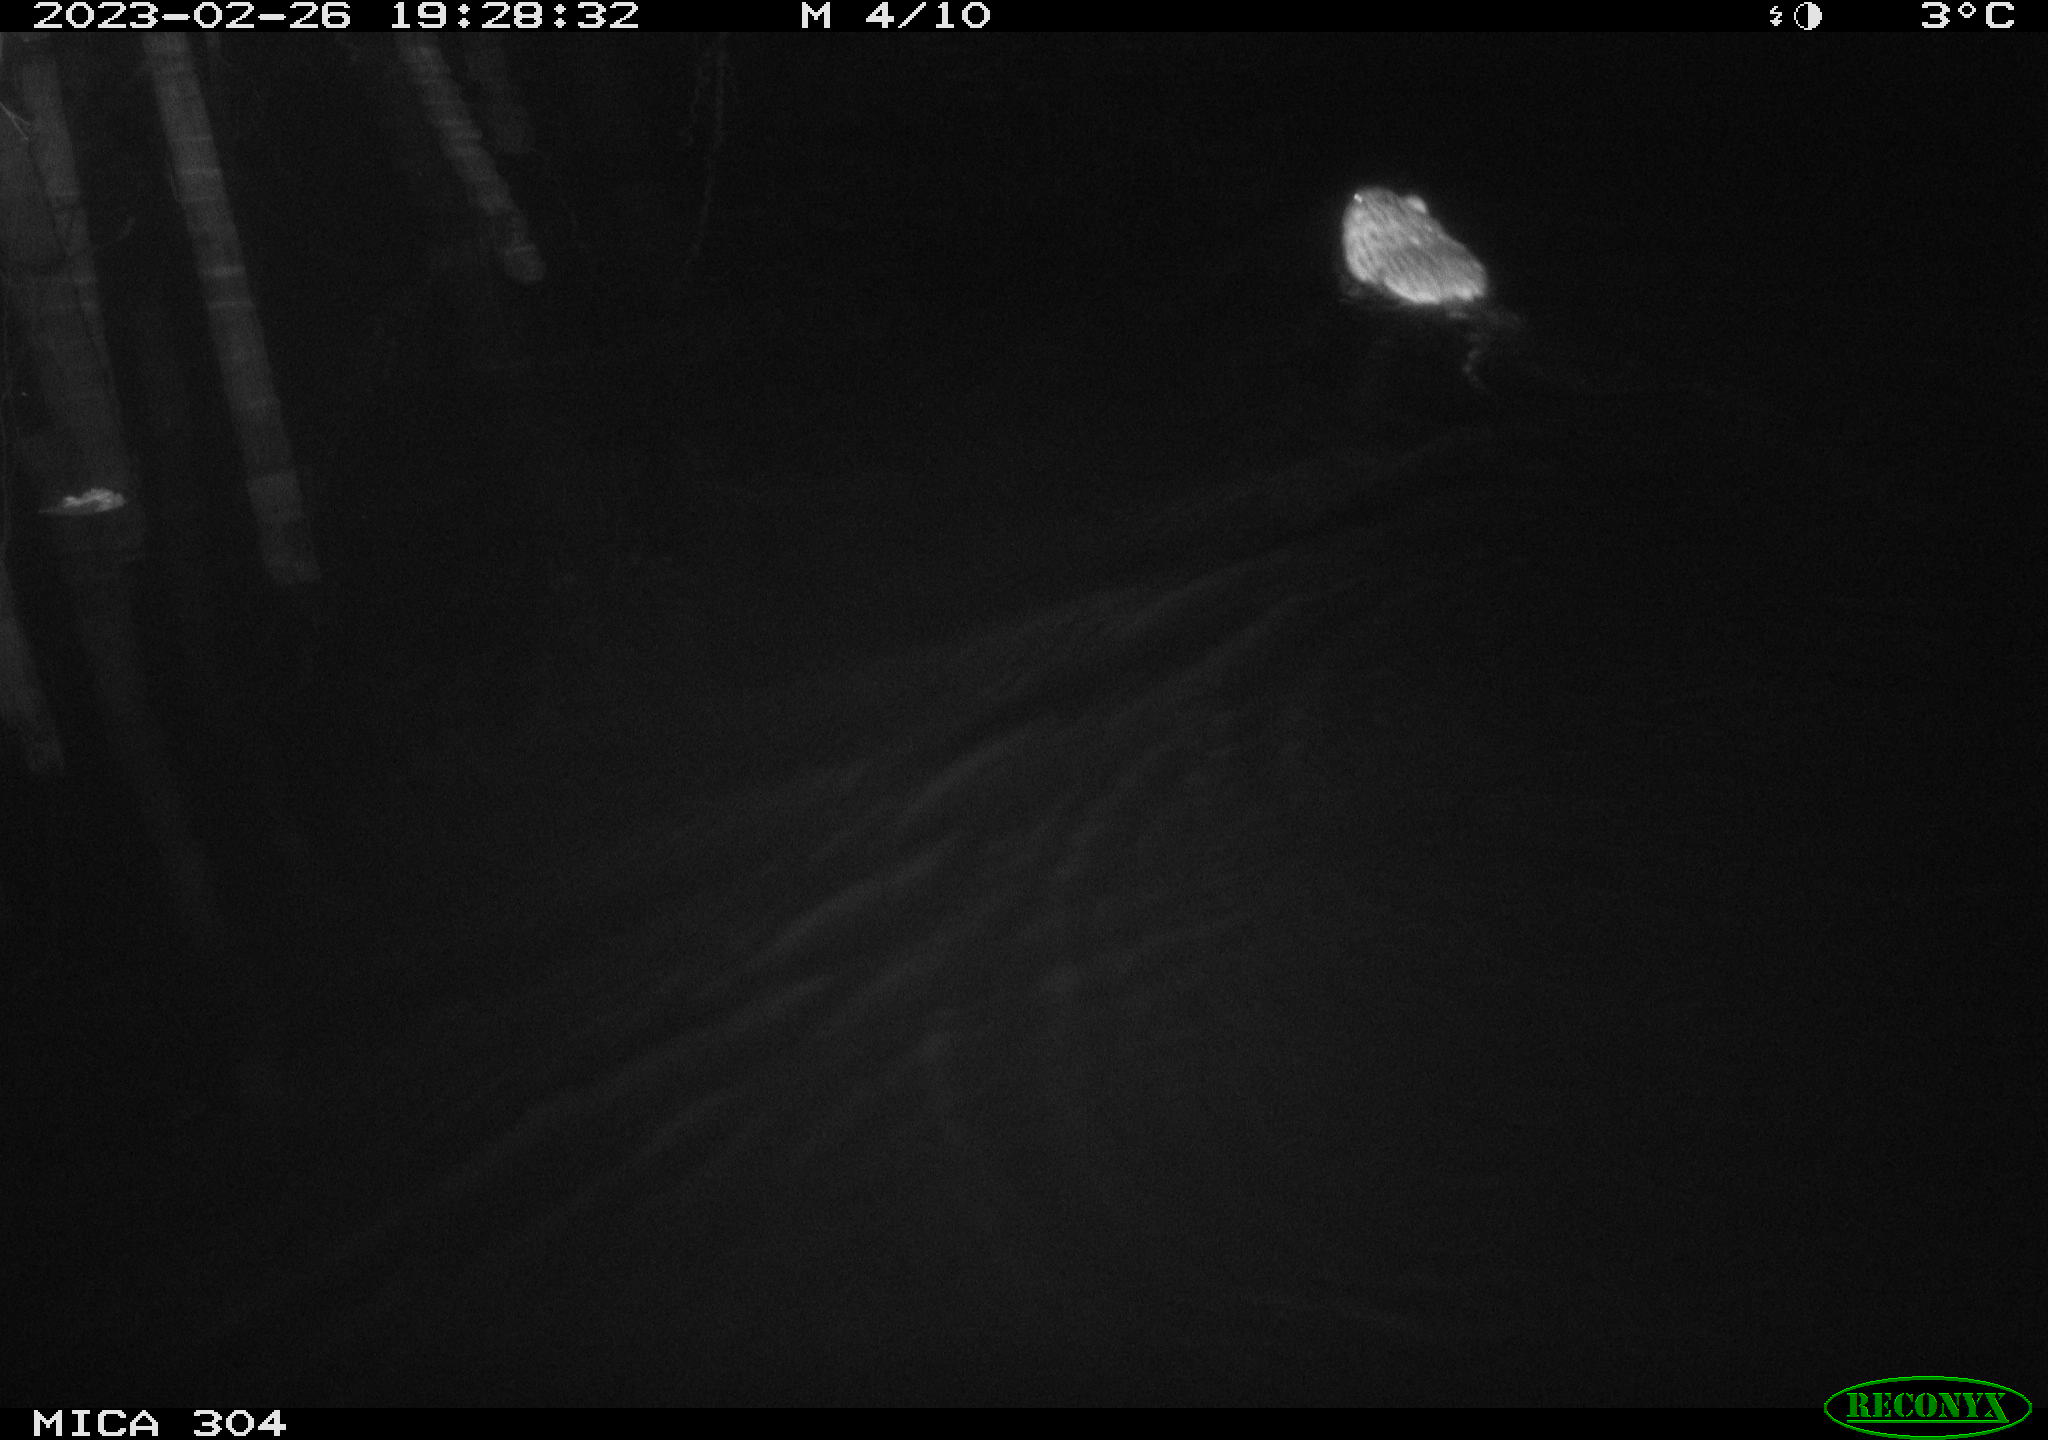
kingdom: Animalia
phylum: Chordata
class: Mammalia
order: Rodentia
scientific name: Rodentia
